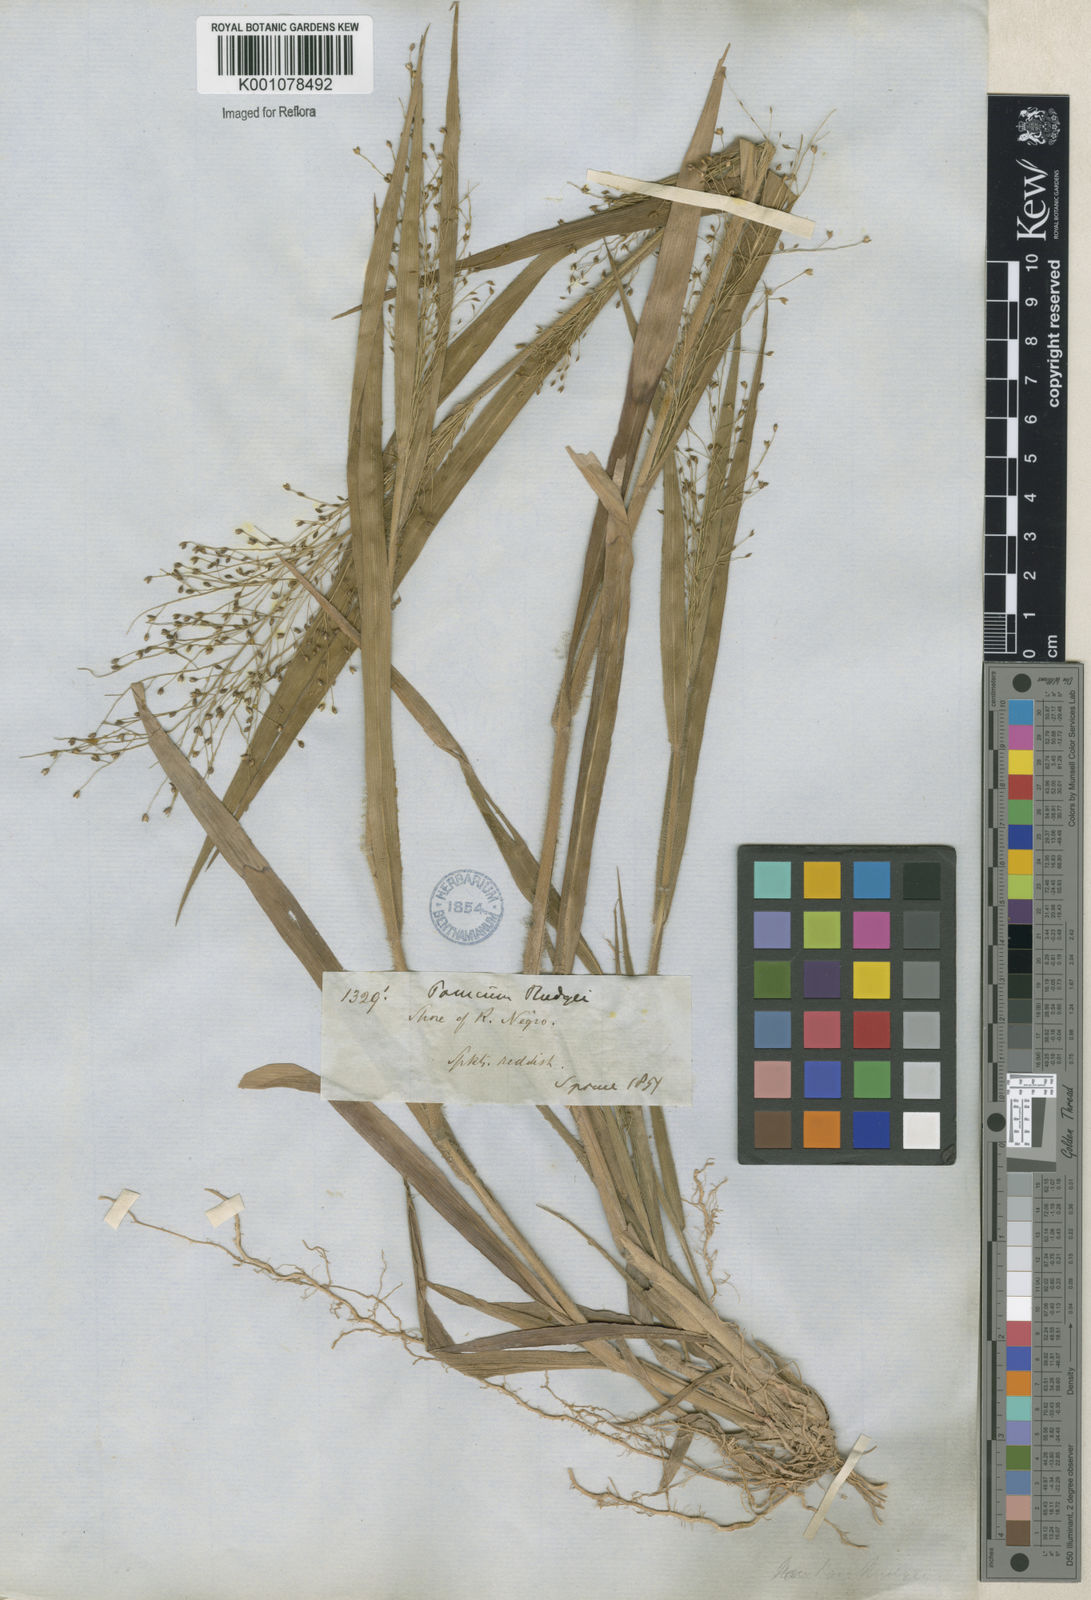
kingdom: Plantae
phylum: Tracheophyta
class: Liliopsida
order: Poales
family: Poaceae
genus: Panicum
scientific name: Panicum rudgei
